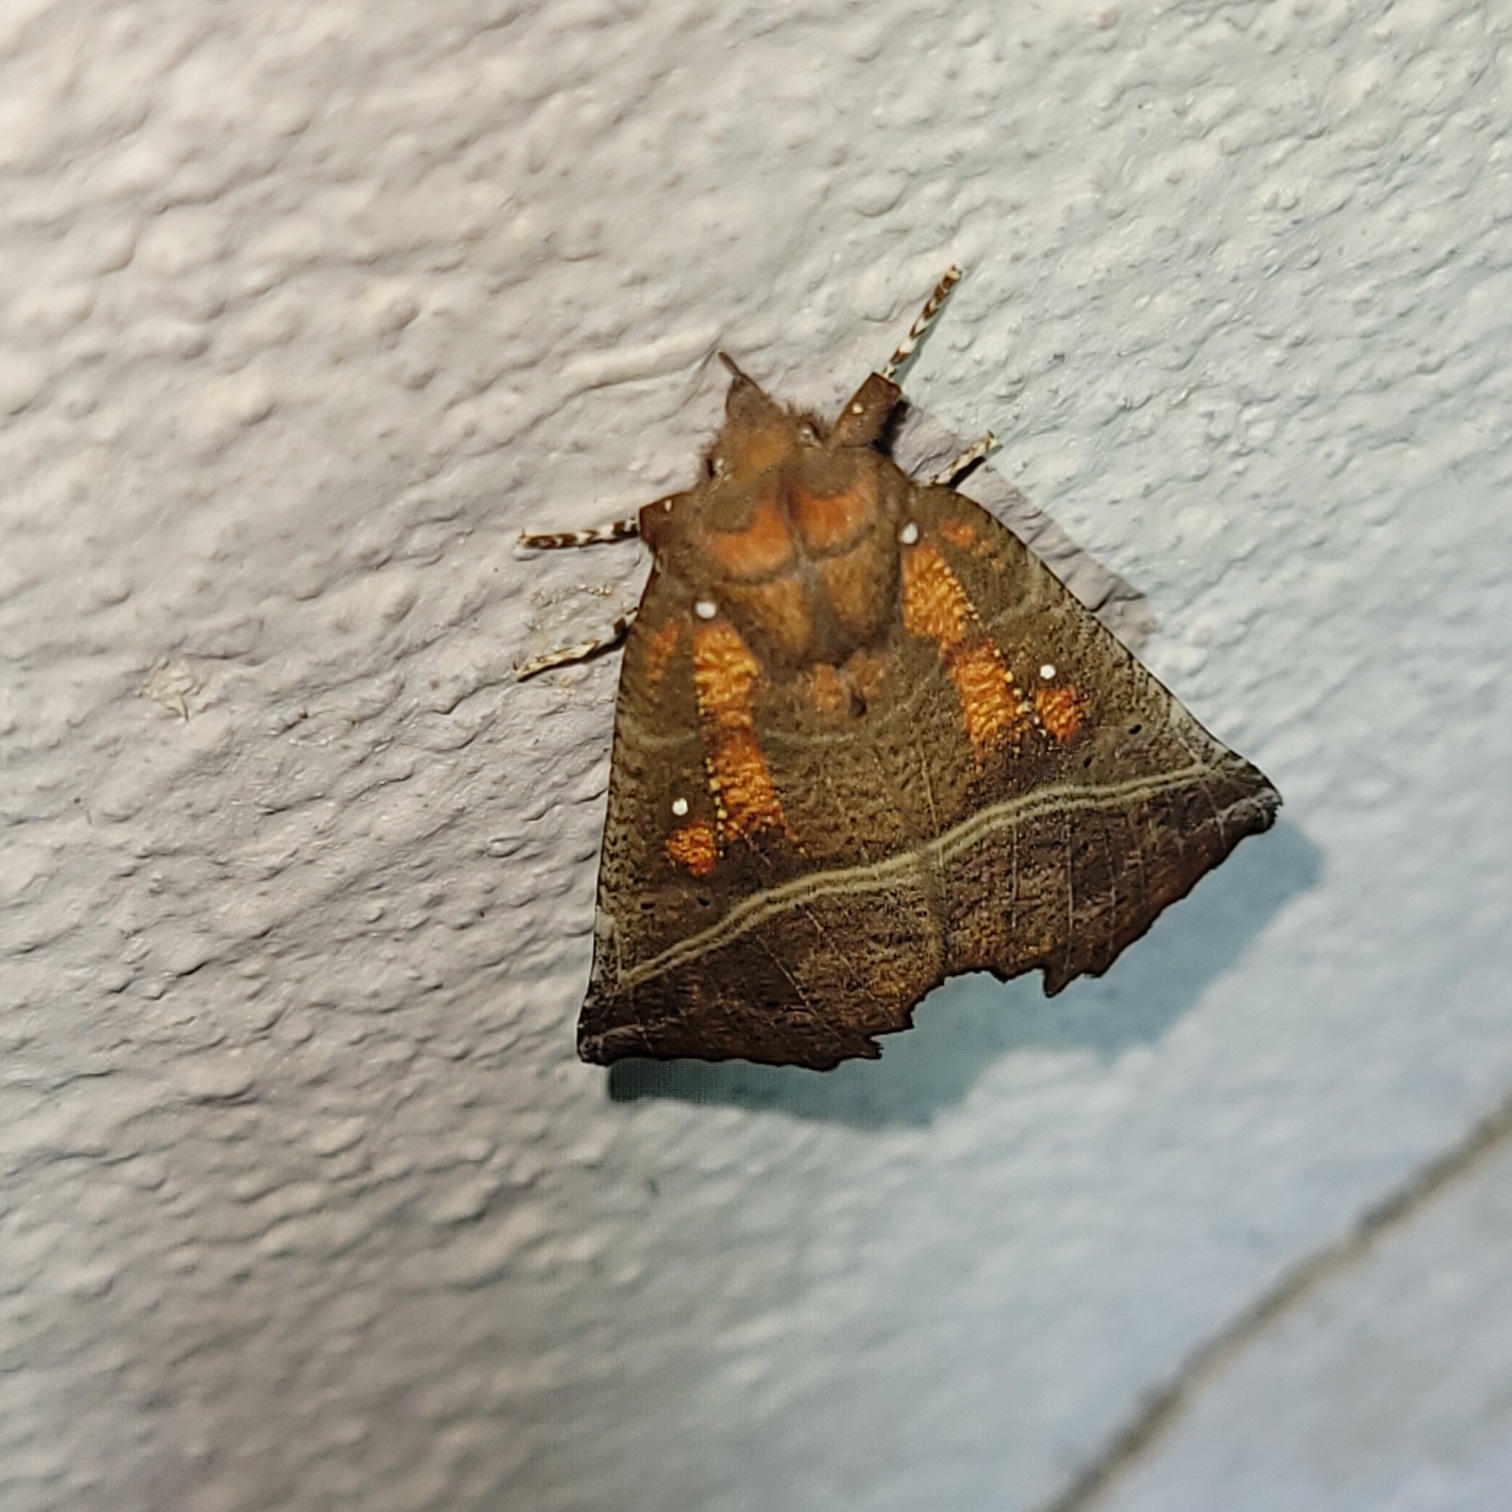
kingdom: Animalia
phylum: Arthropoda
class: Insecta
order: Lepidoptera
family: Erebidae
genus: Scoliopteryx
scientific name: Scoliopteryx libatrix
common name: Husmoderugle
